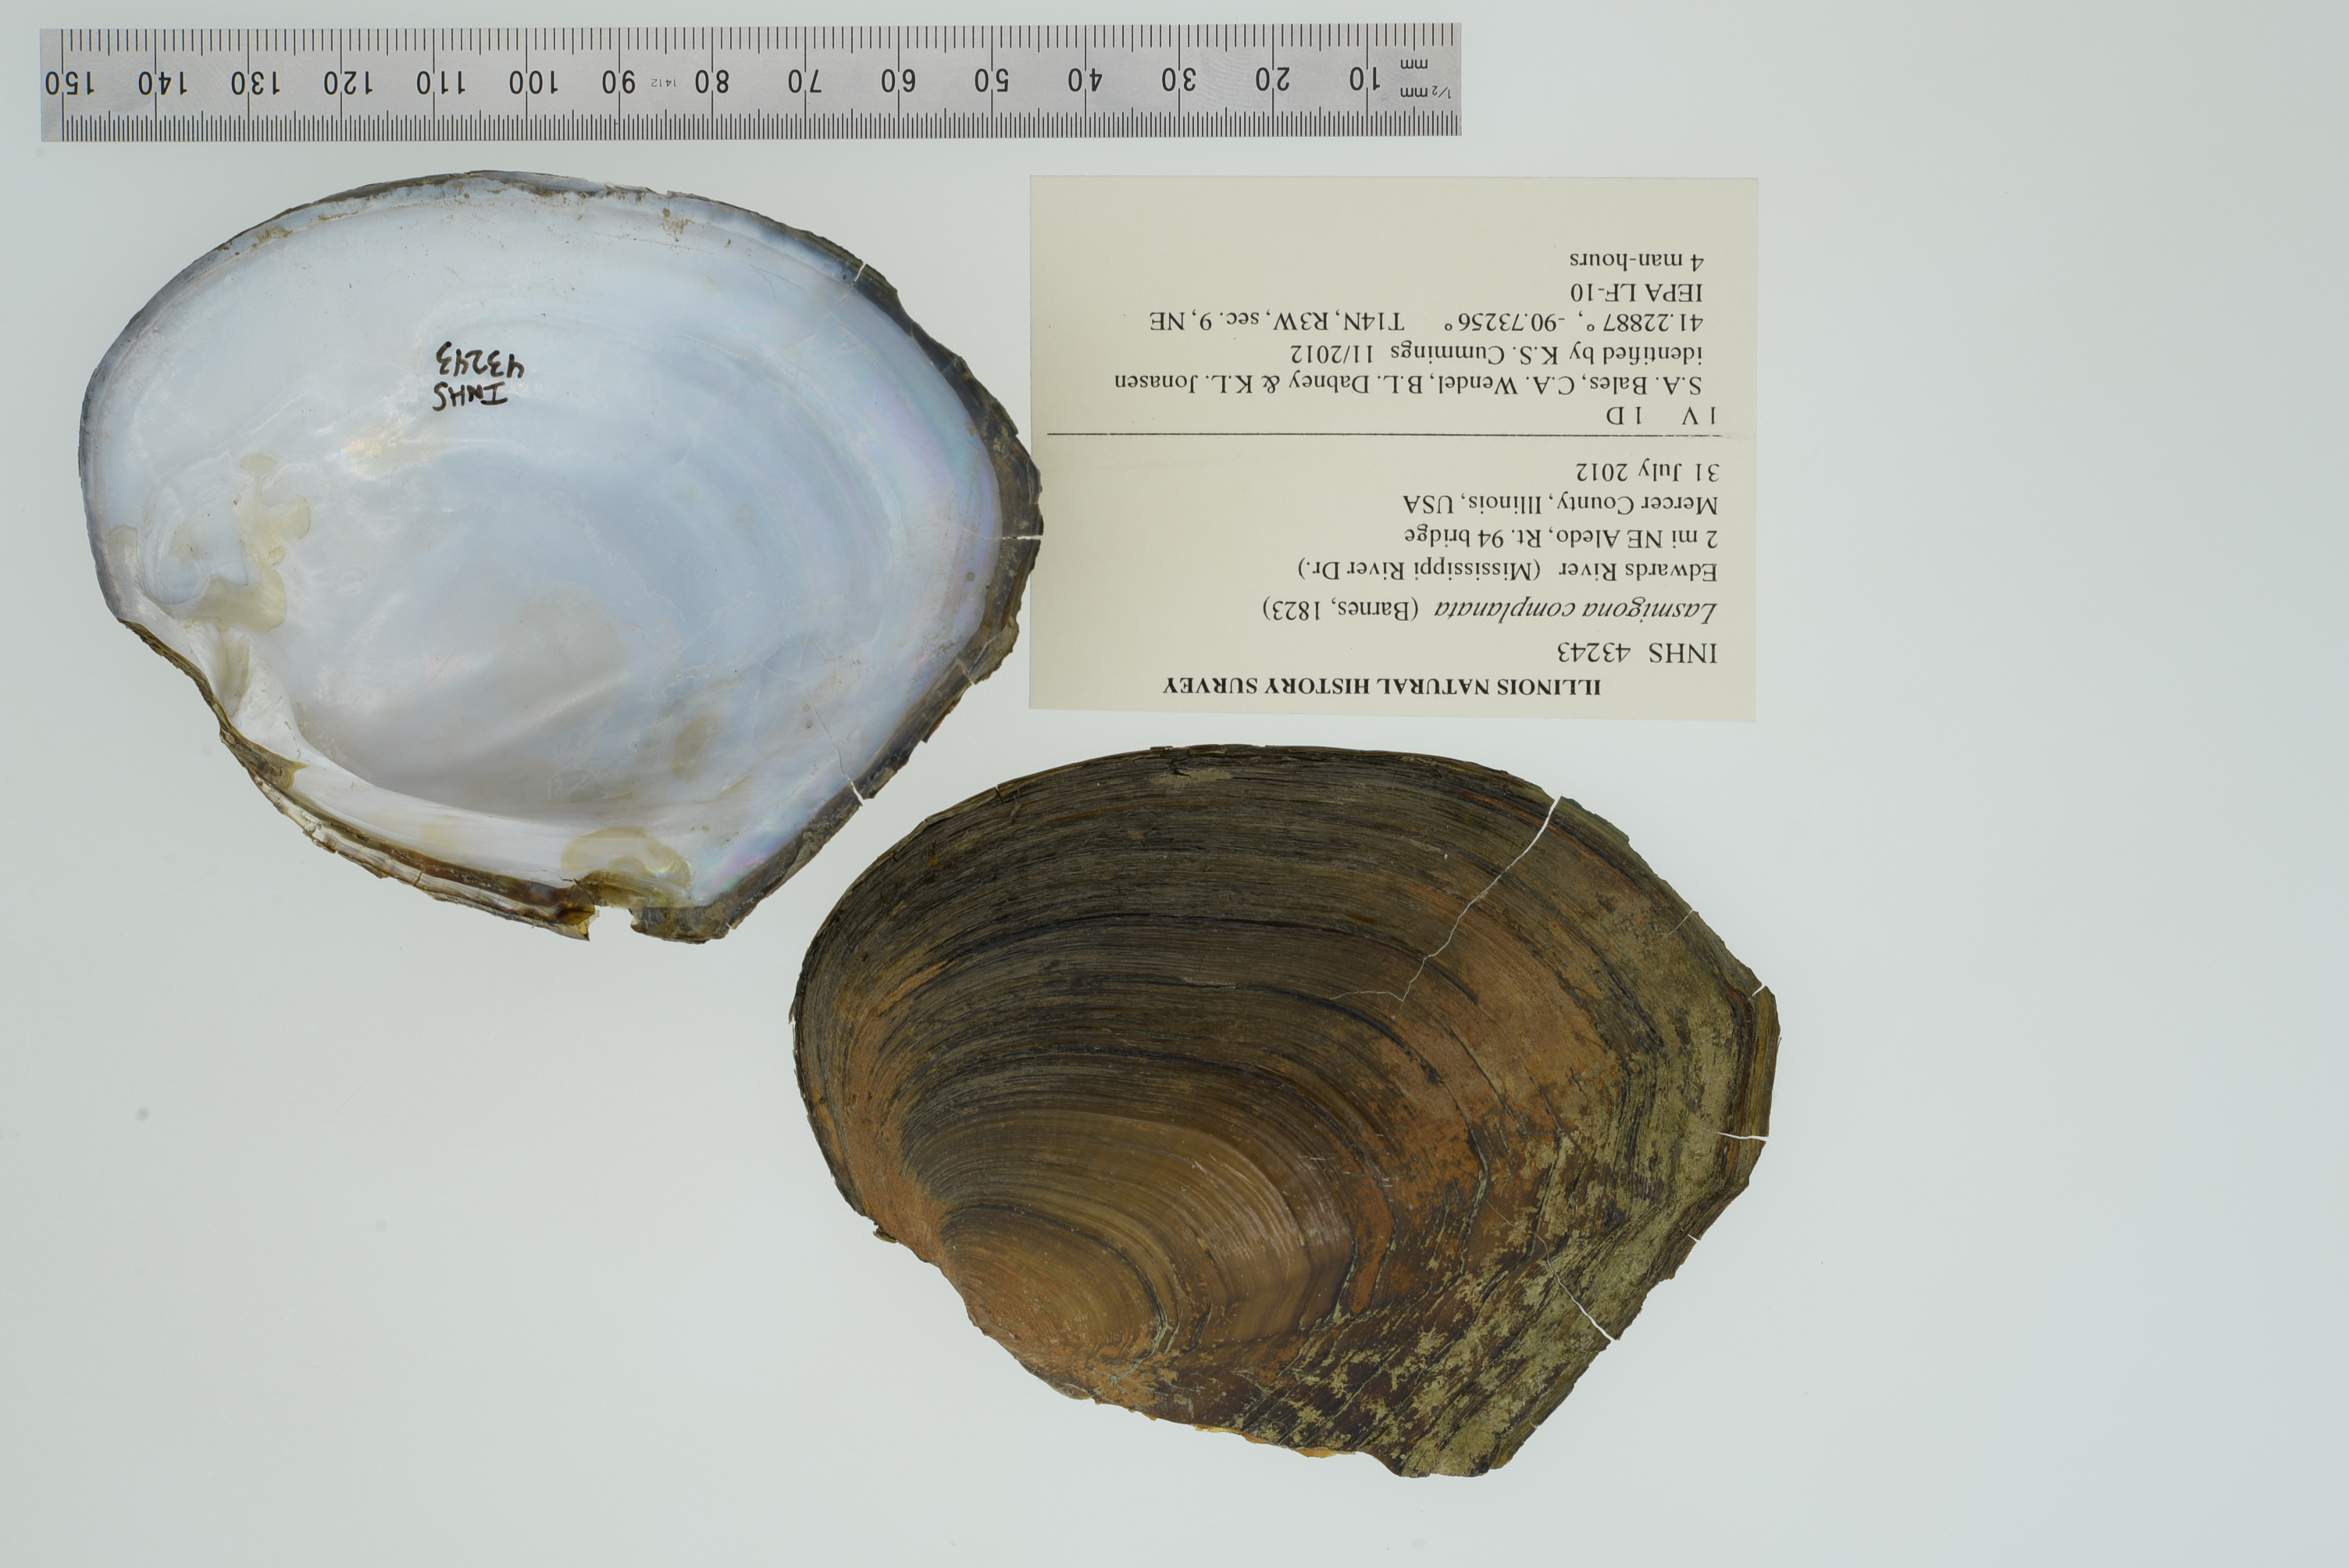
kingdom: Animalia
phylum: Mollusca
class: Bivalvia
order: Unionida
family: Unionidae
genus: Lasmigona
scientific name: Lasmigona complanata
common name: White heelsplitter
